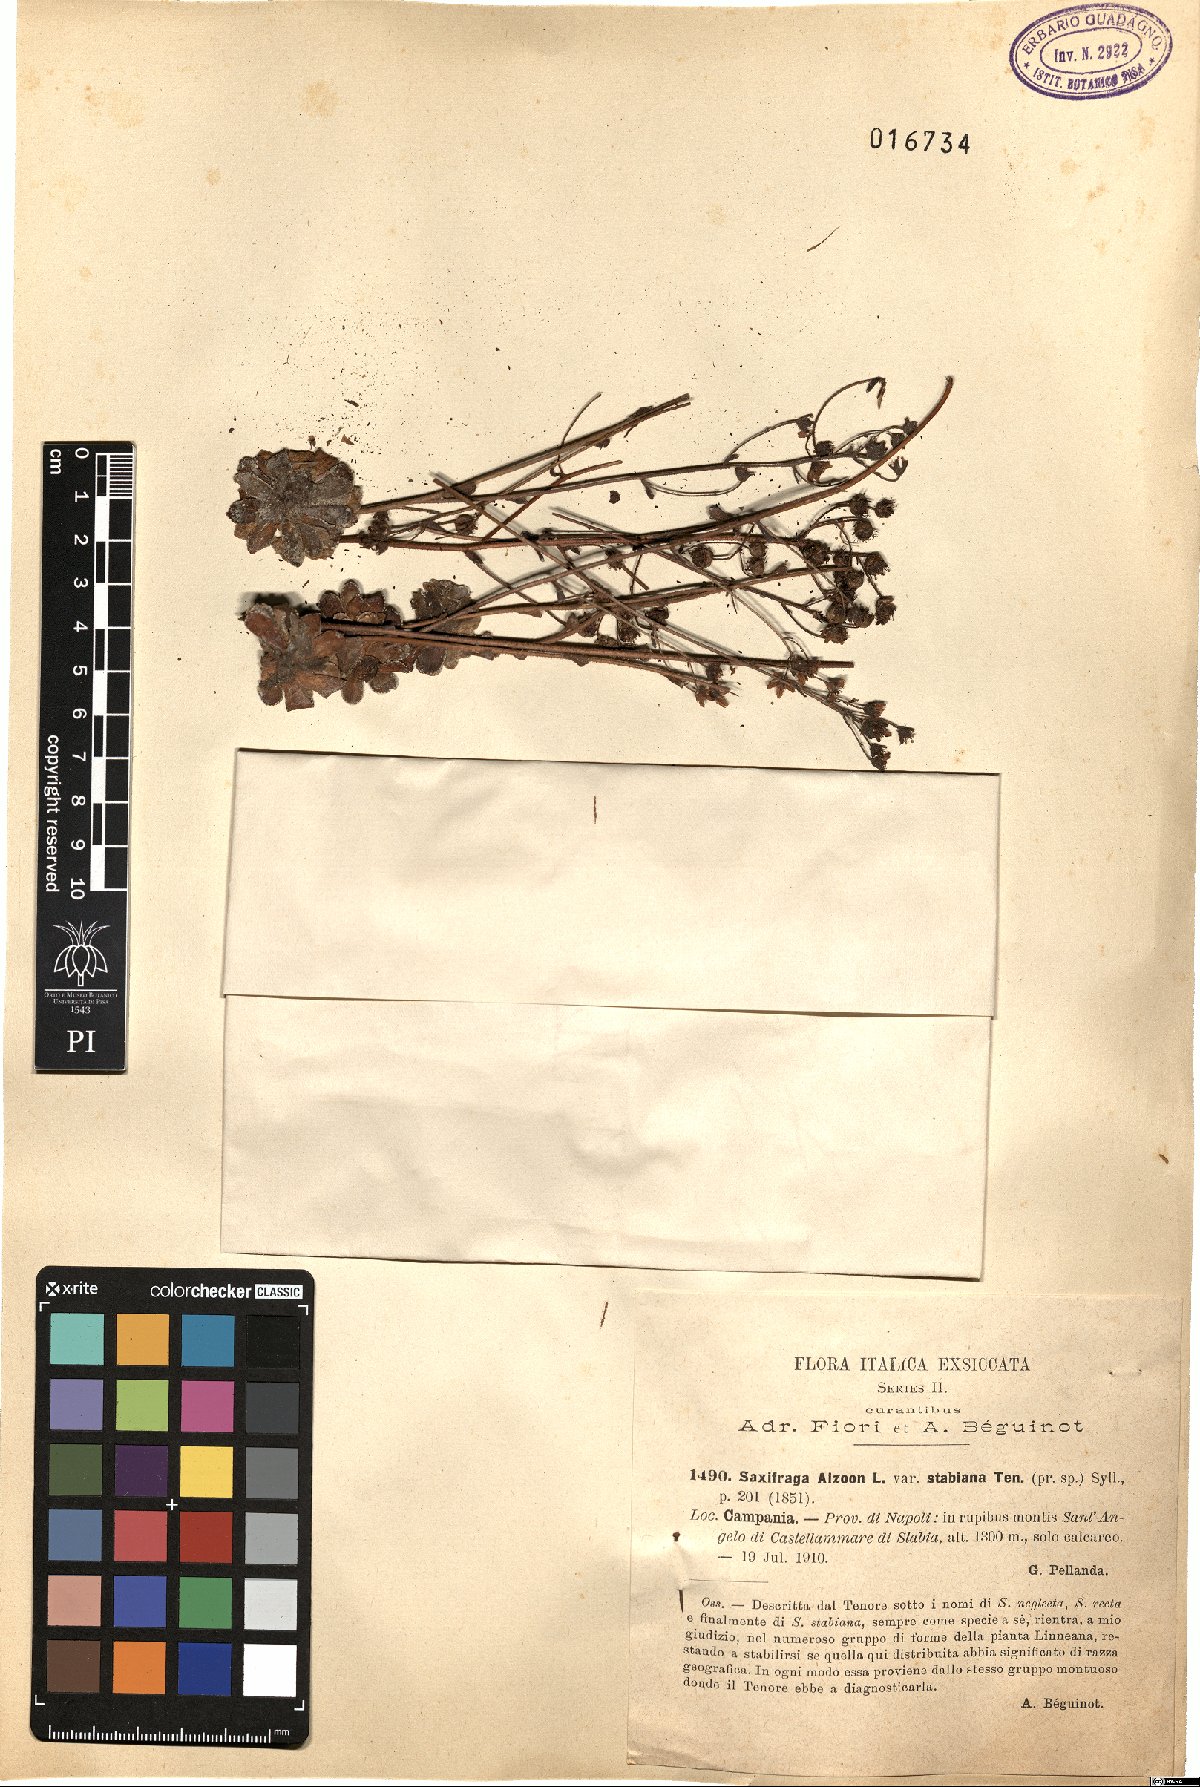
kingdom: Plantae
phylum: Tracheophyta
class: Magnoliopsida
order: Saxifragales
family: Saxifragaceae
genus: Saxifraga
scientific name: Saxifraga paniculata
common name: Livelong saxifrage
